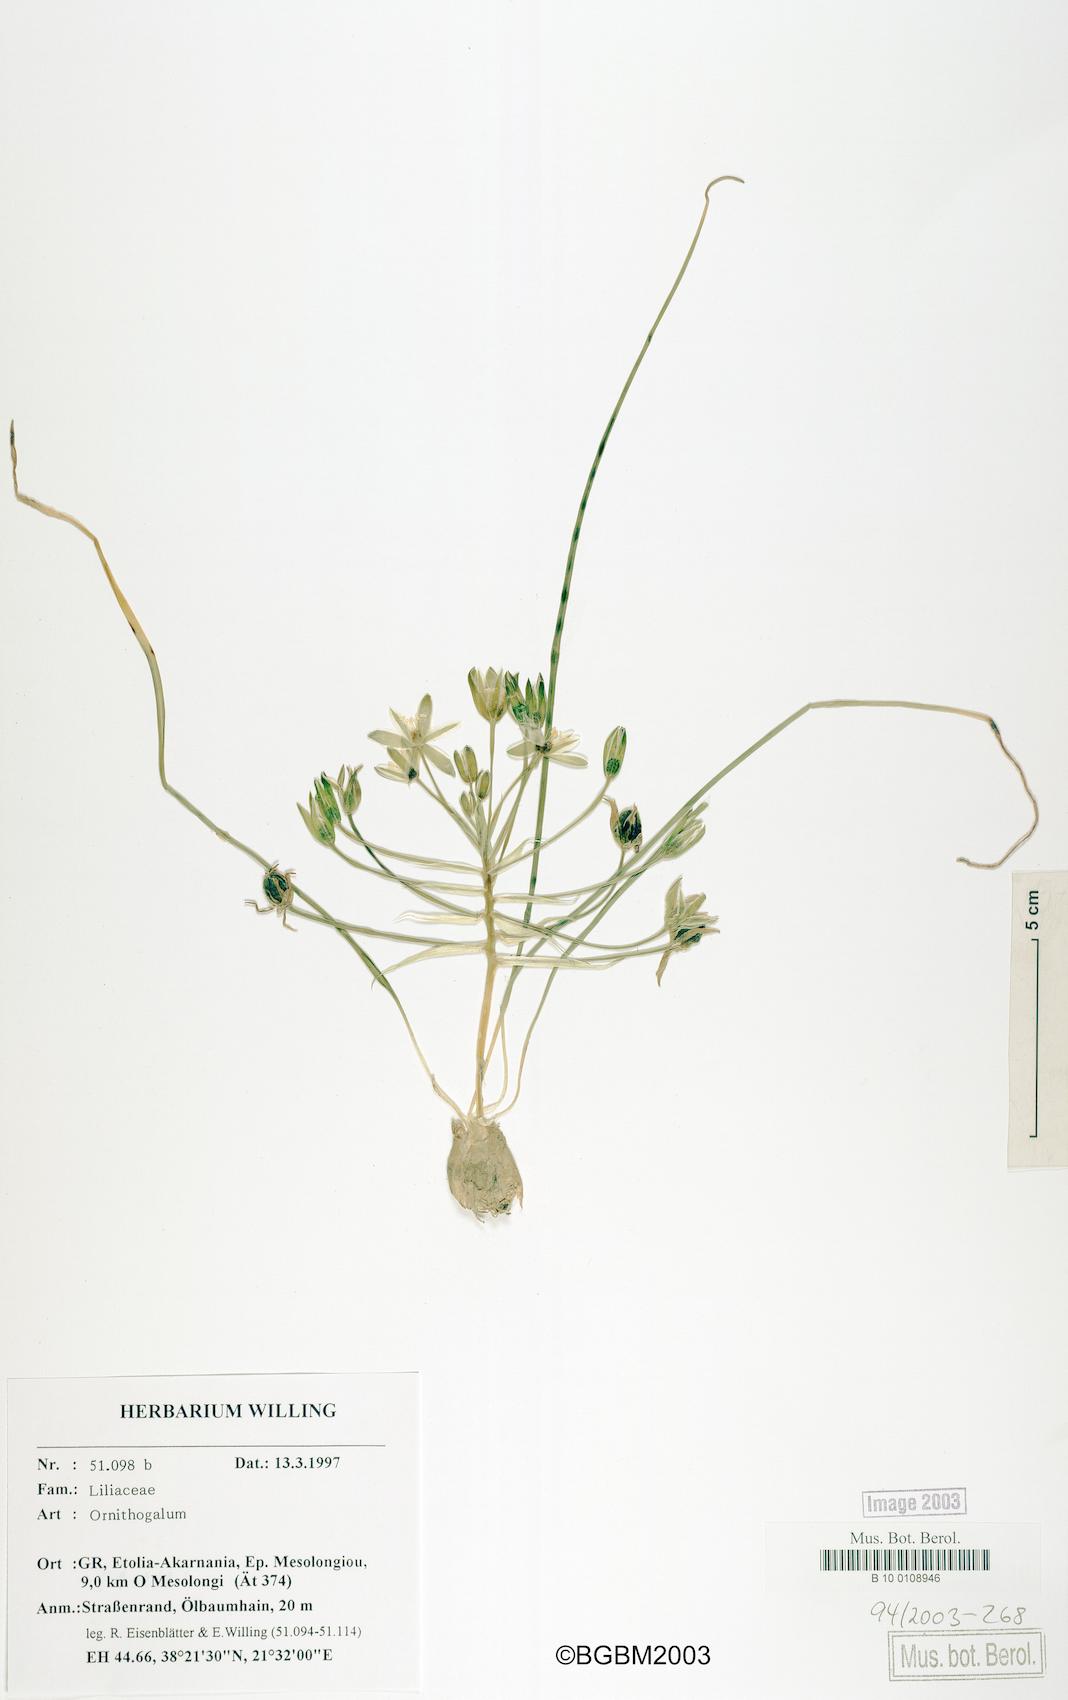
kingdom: Plantae
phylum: Tracheophyta
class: Liliopsida
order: Asparagales
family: Asparagaceae
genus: Ornithogalum
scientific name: Ornithogalum
